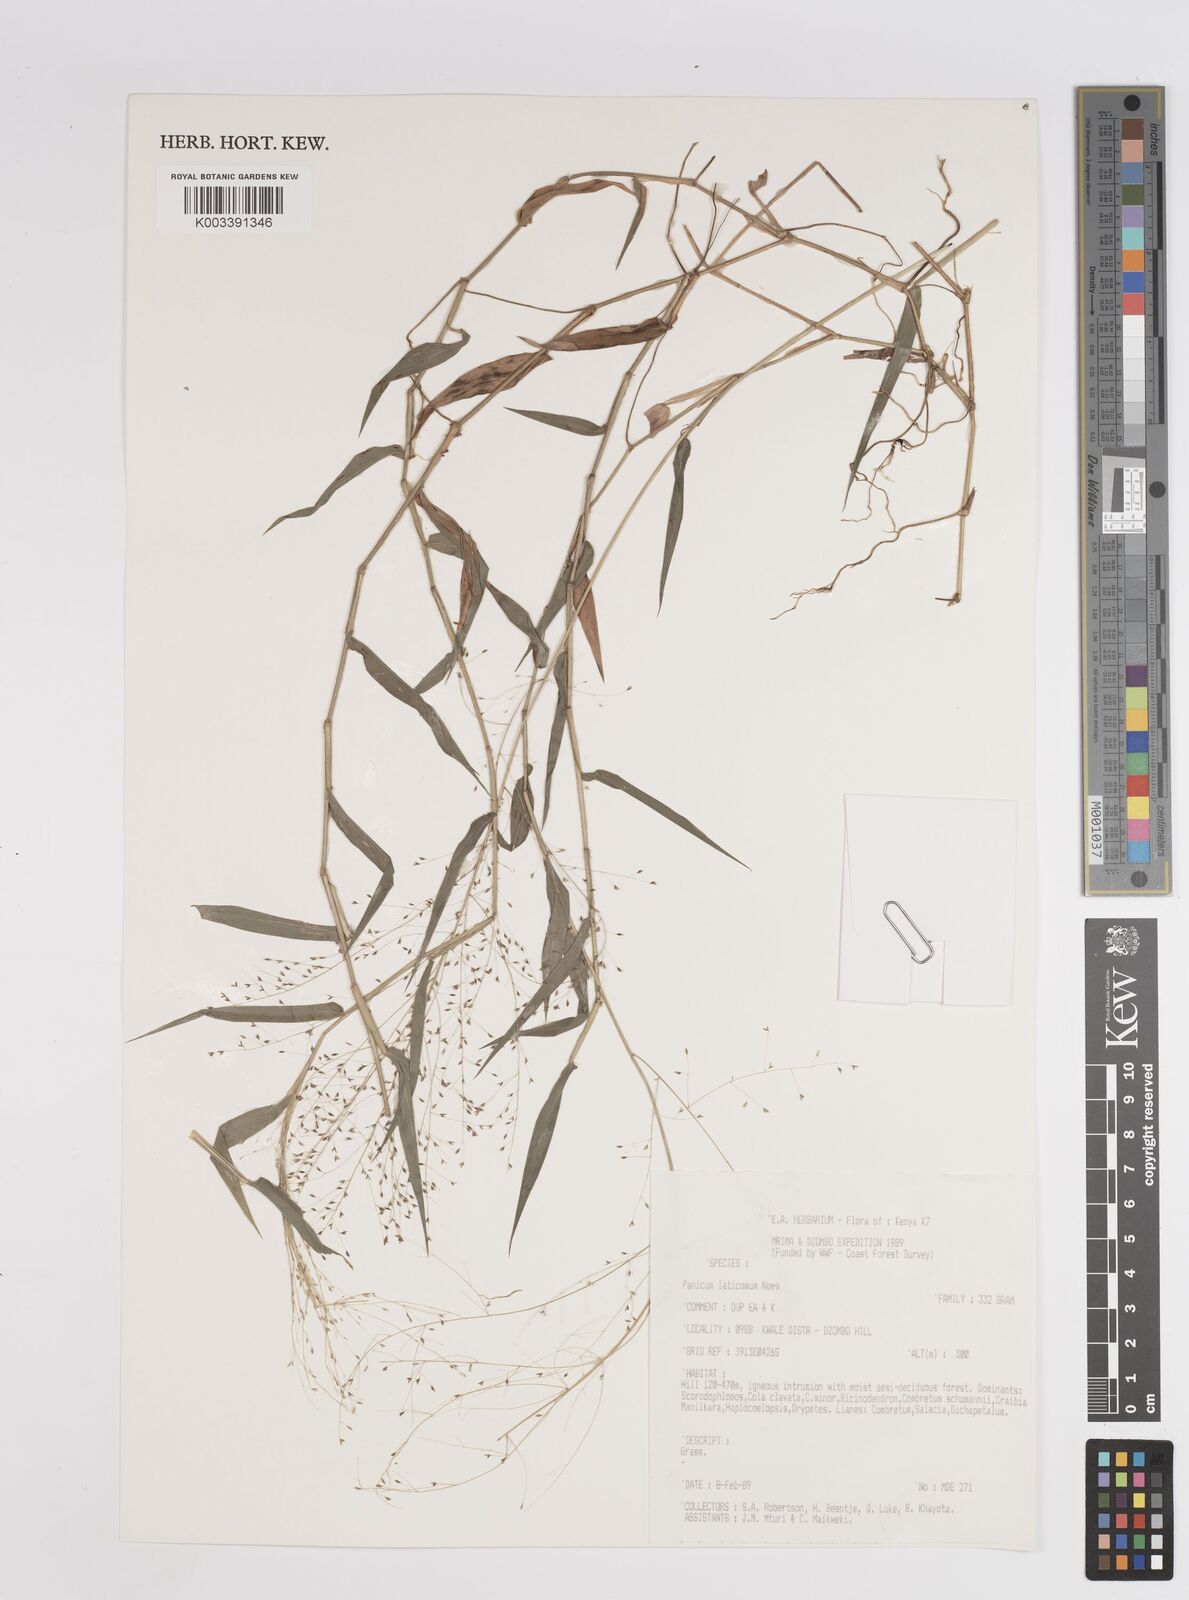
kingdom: Plantae
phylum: Tracheophyta
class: Liliopsida
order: Poales
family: Poaceae
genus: Panicum
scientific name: Panicum laticomum
